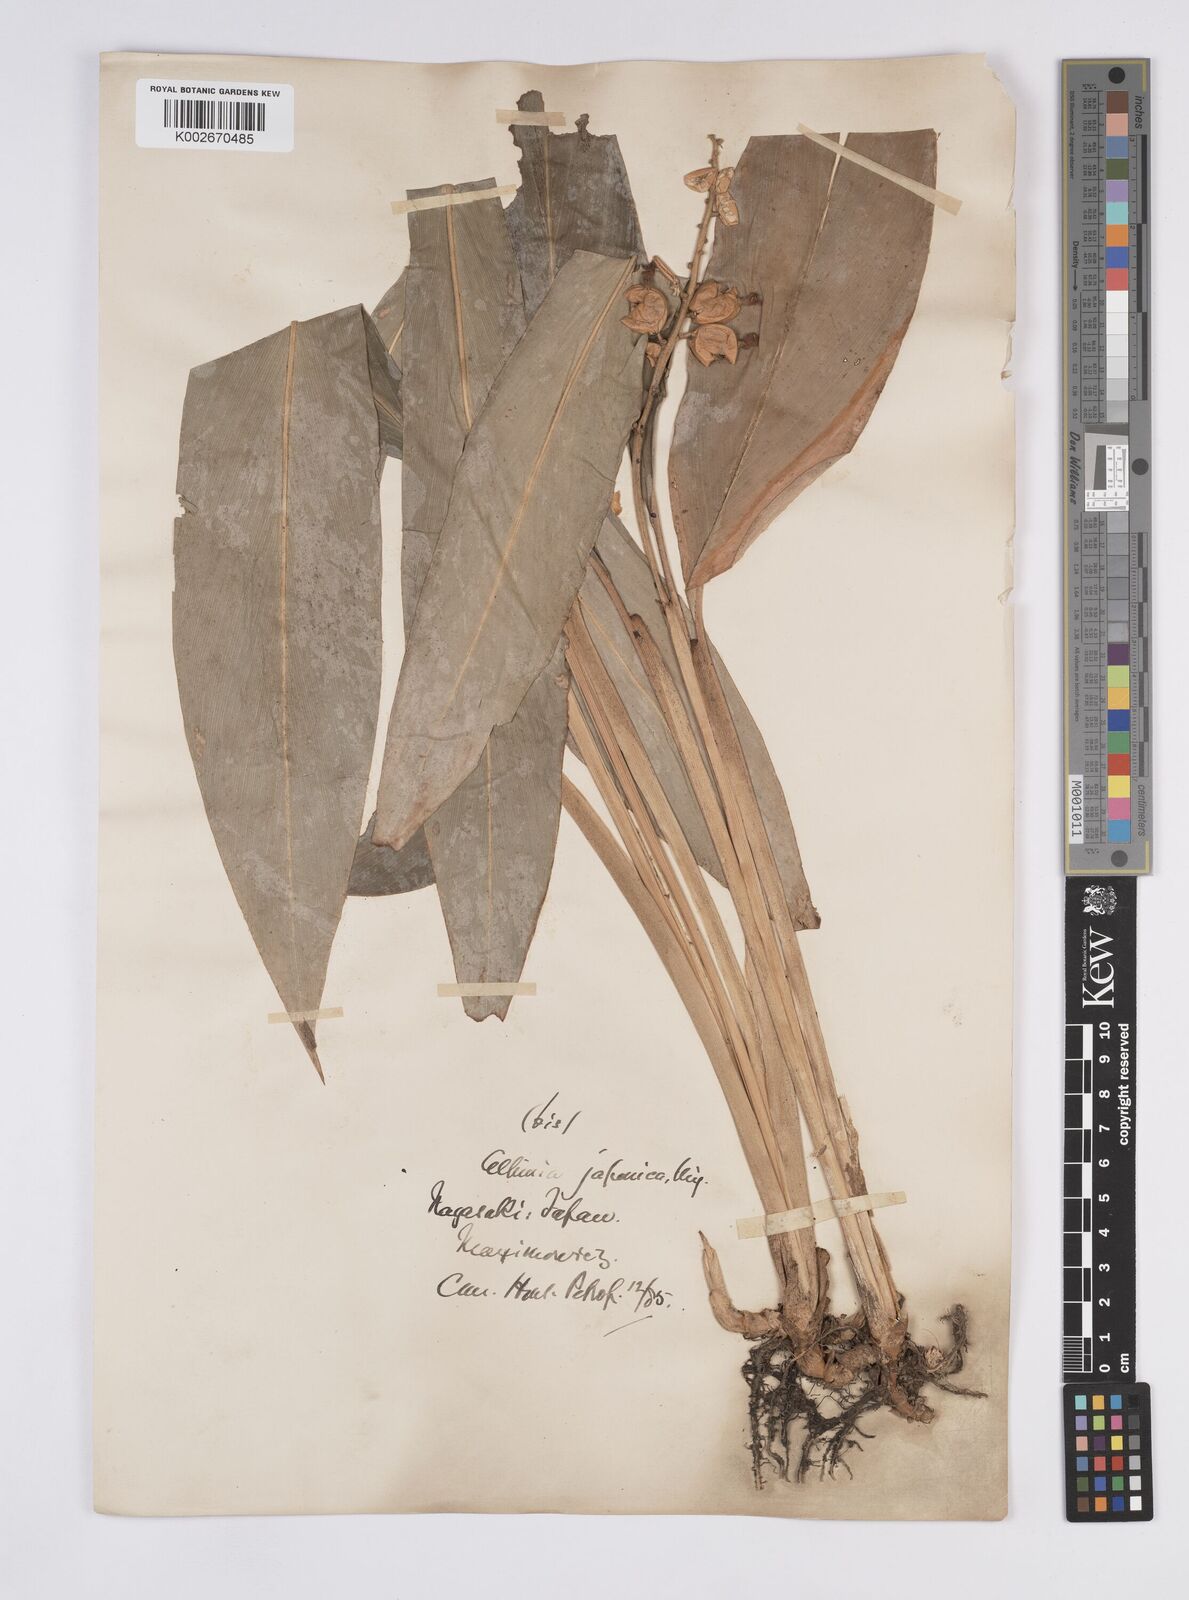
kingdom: Plantae
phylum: Tracheophyta
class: Liliopsida
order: Zingiberales
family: Zingiberaceae
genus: Alpinia
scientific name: Alpinia japonica
